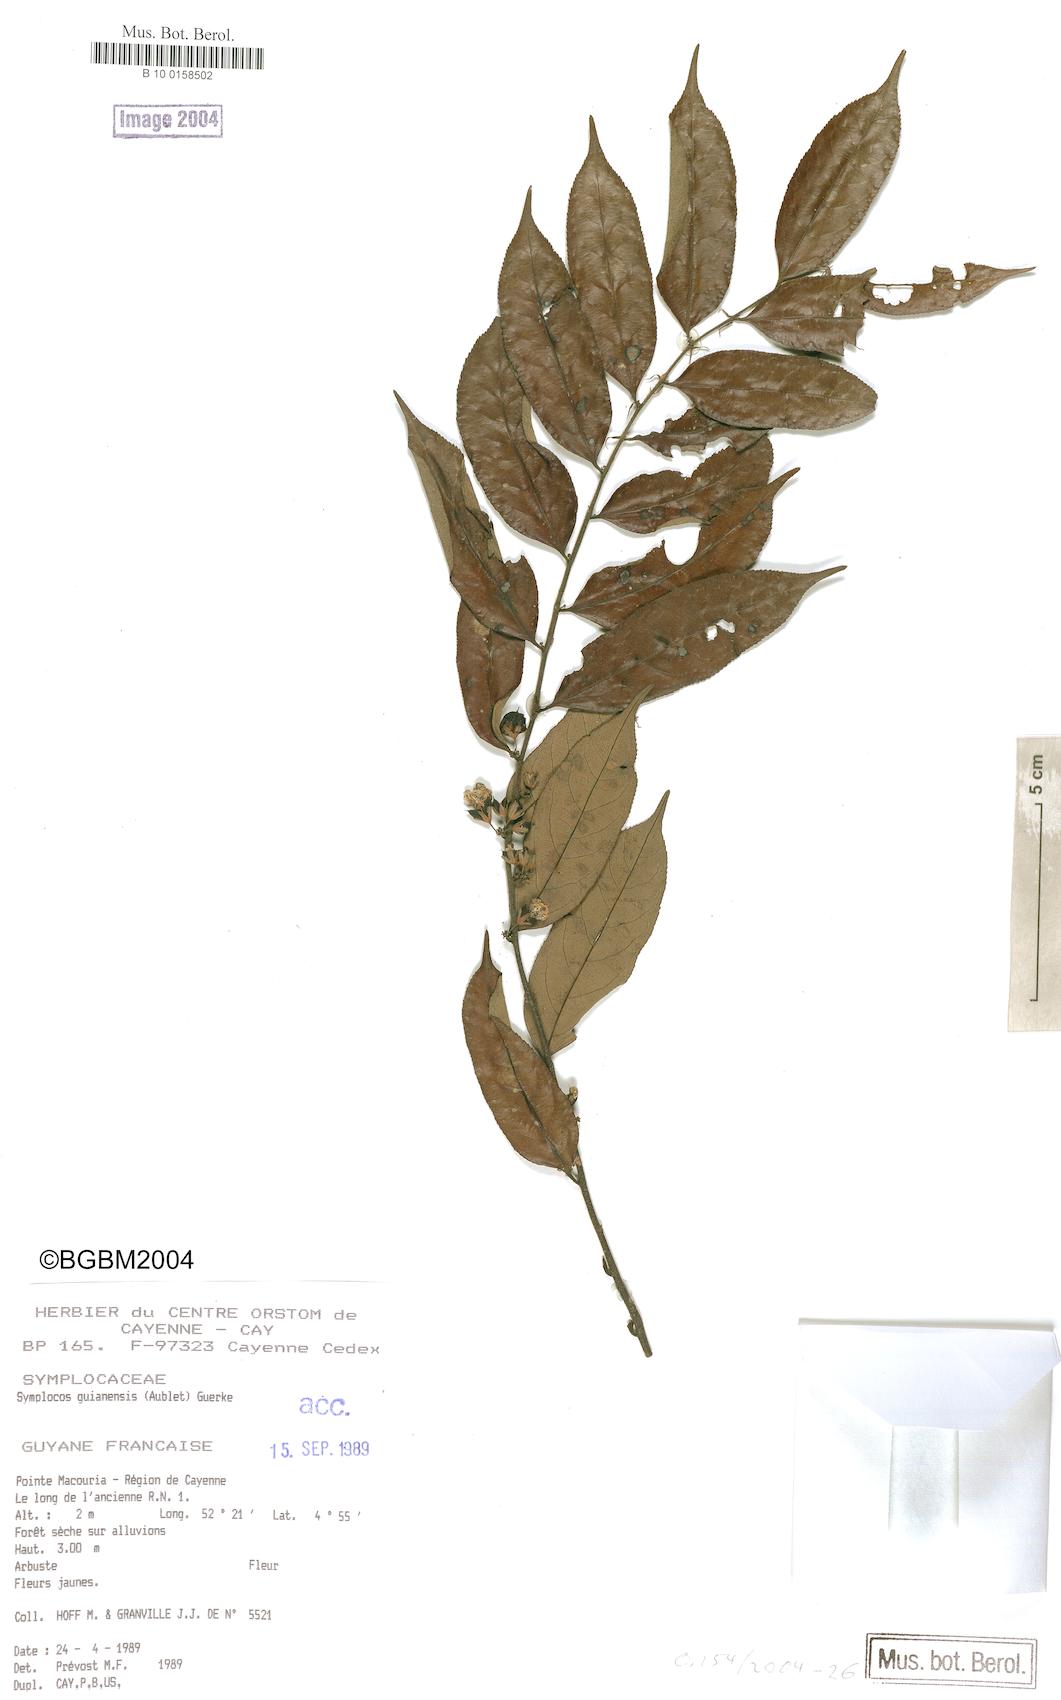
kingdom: Plantae
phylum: Tracheophyta
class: Magnoliopsida
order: Ericales
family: Symplocaceae
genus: Symplocos
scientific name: Symplocos guianensis
